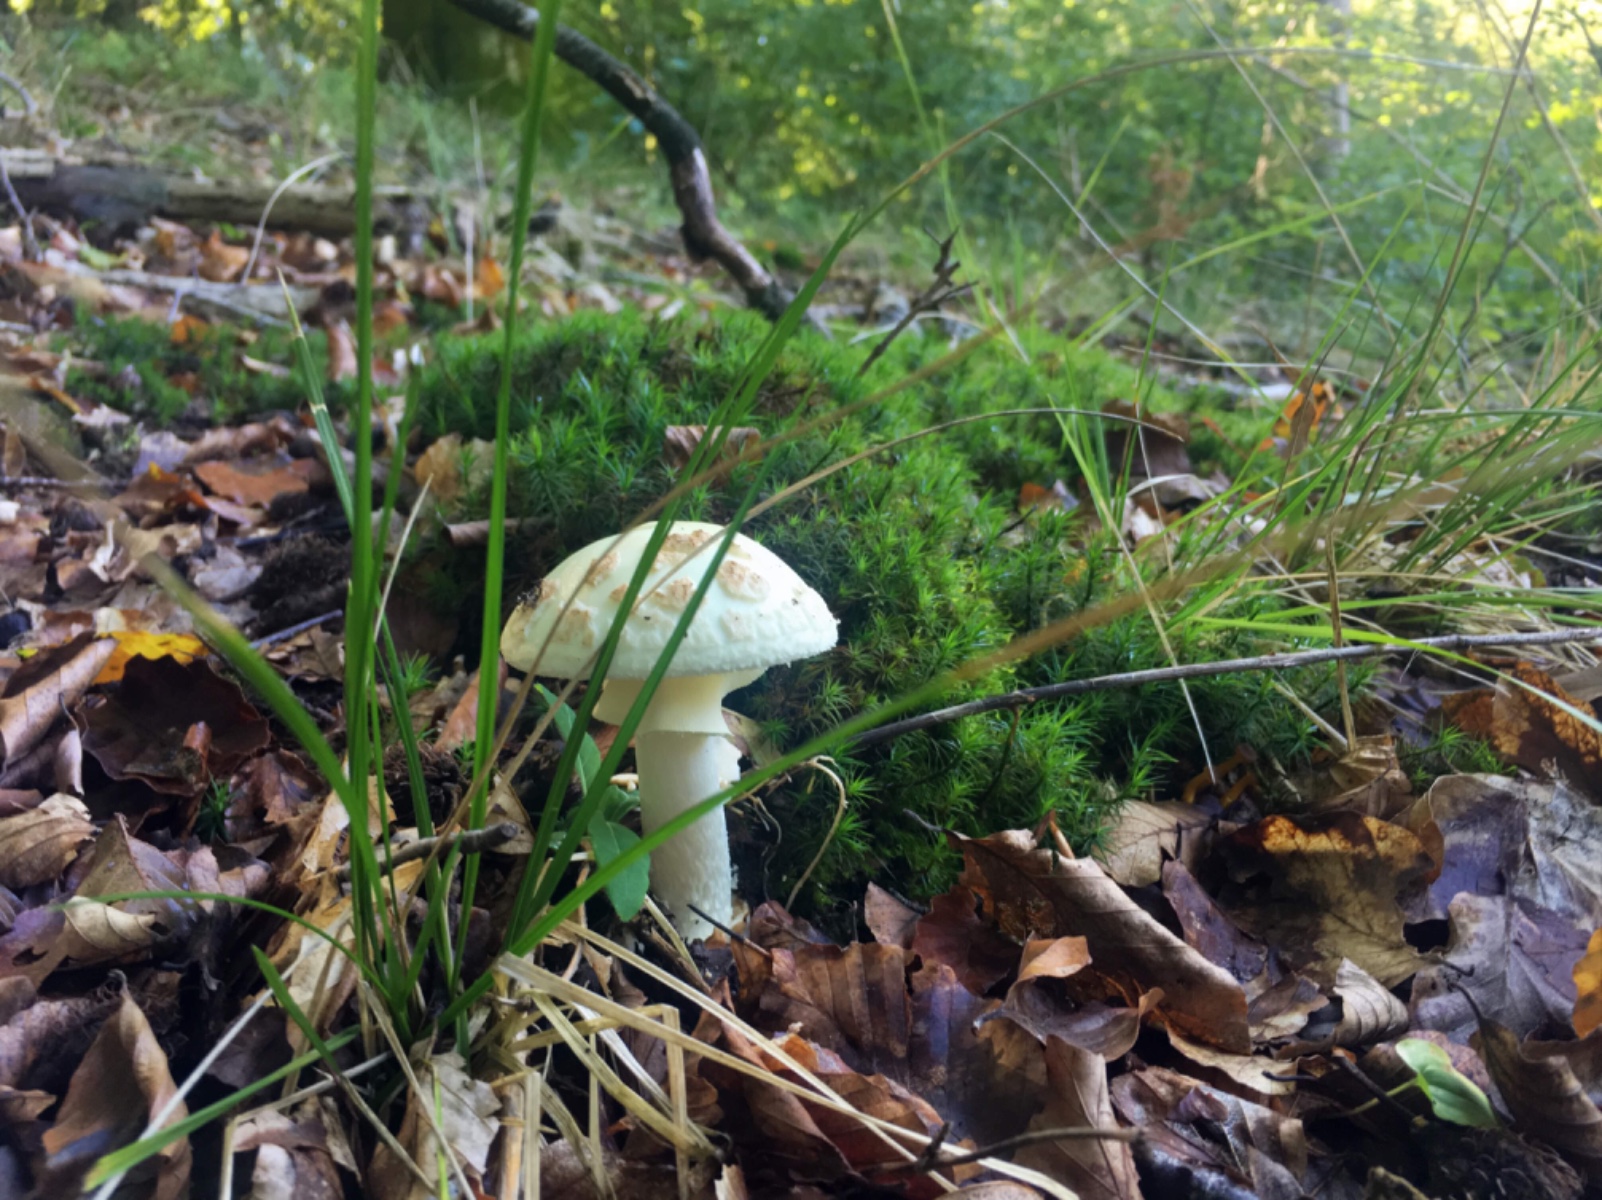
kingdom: Fungi
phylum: Basidiomycota
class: Agaricomycetes
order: Agaricales
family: Amanitaceae
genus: Amanita
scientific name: Amanita citrina
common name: kugleknoldet fluesvamp
